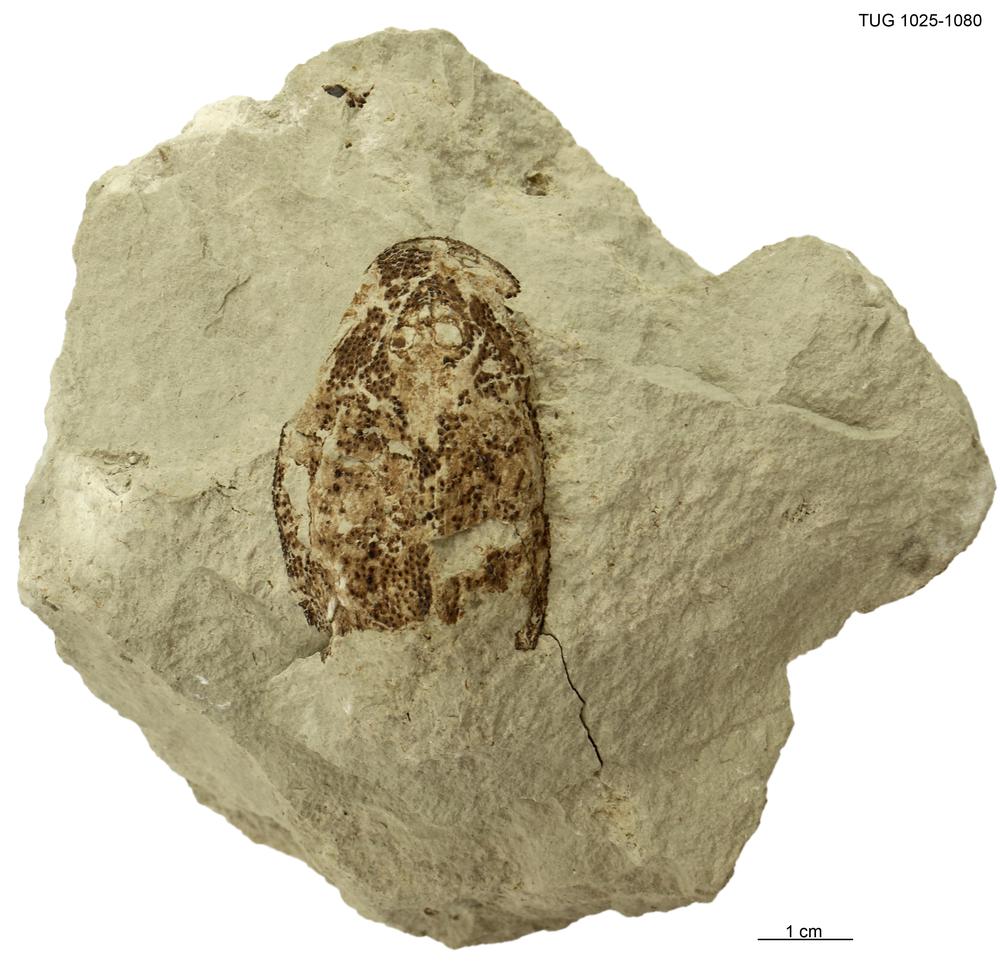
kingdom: Animalia
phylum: Chordata
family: Dartmuthiidae
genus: Dartmuthia
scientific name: Dartmuthia
